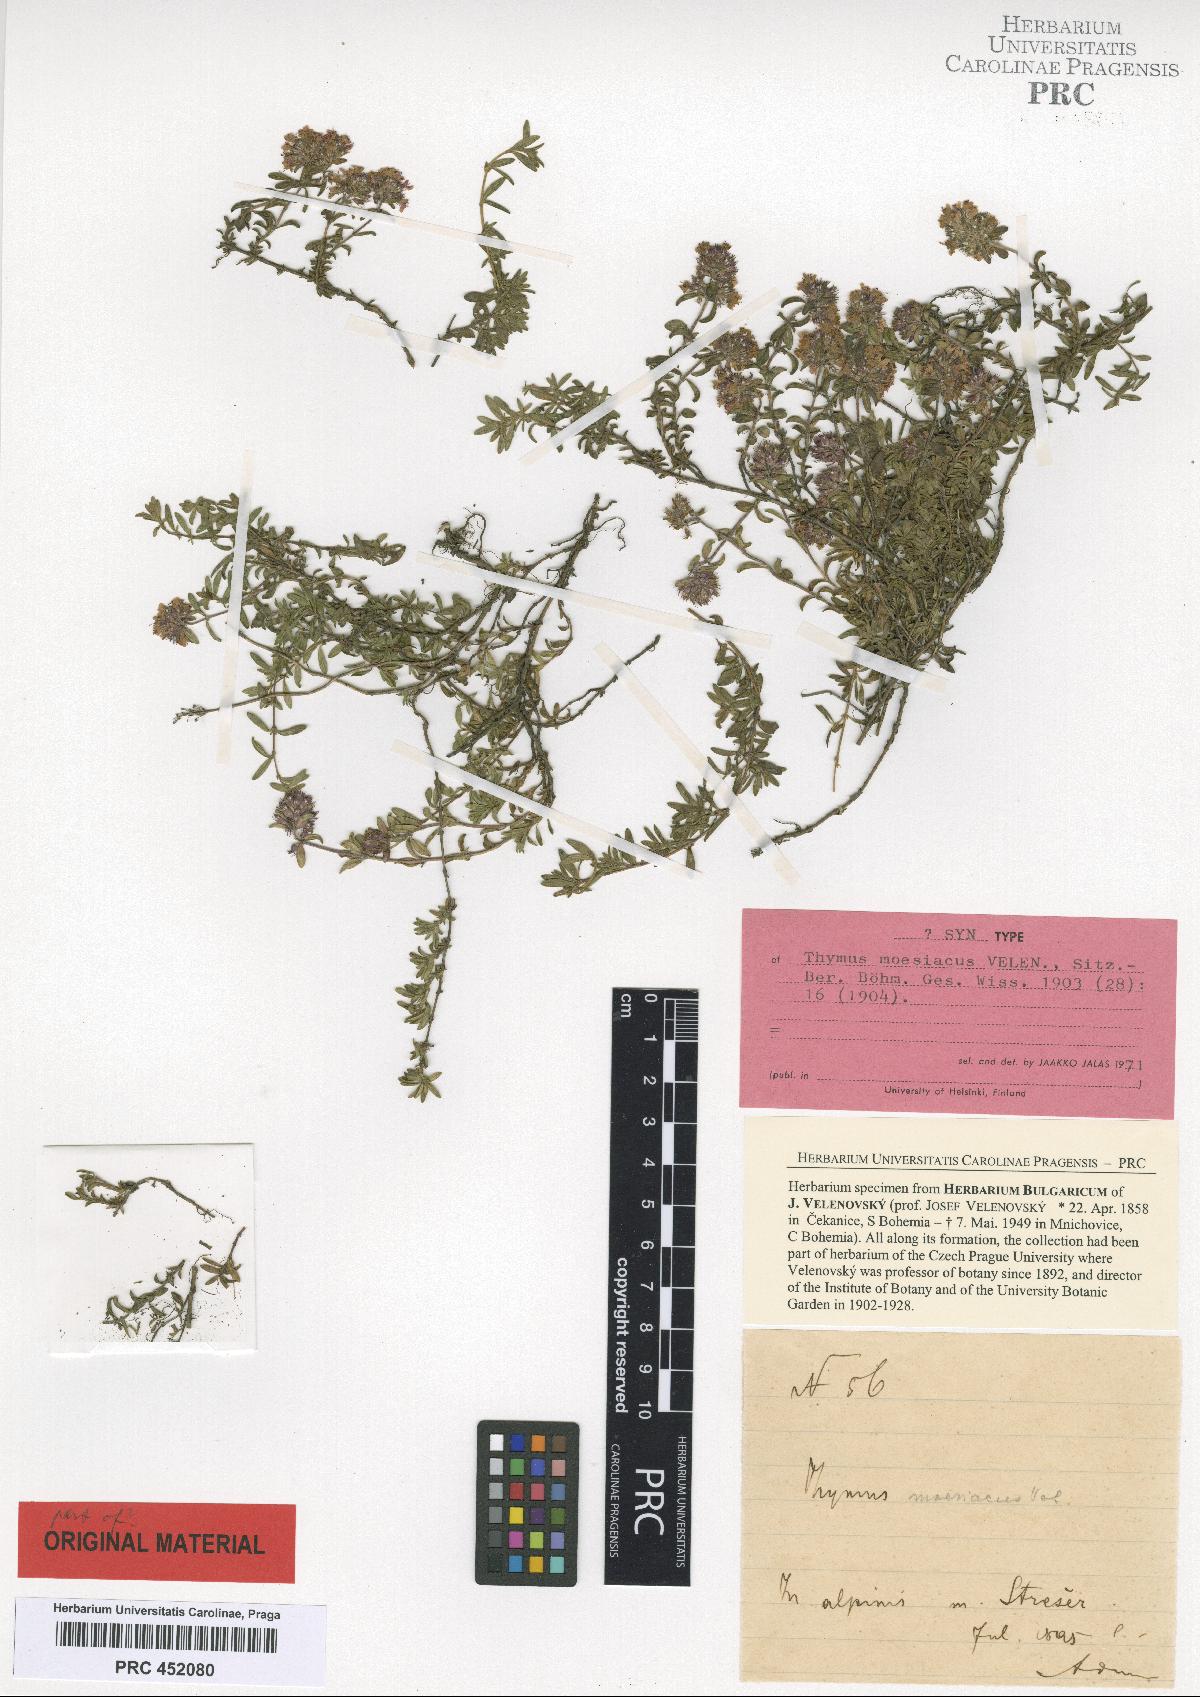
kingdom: Plantae
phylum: Tracheophyta
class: Magnoliopsida
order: Lamiales
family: Lamiaceae
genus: Thymus
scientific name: Thymus longicaulis
